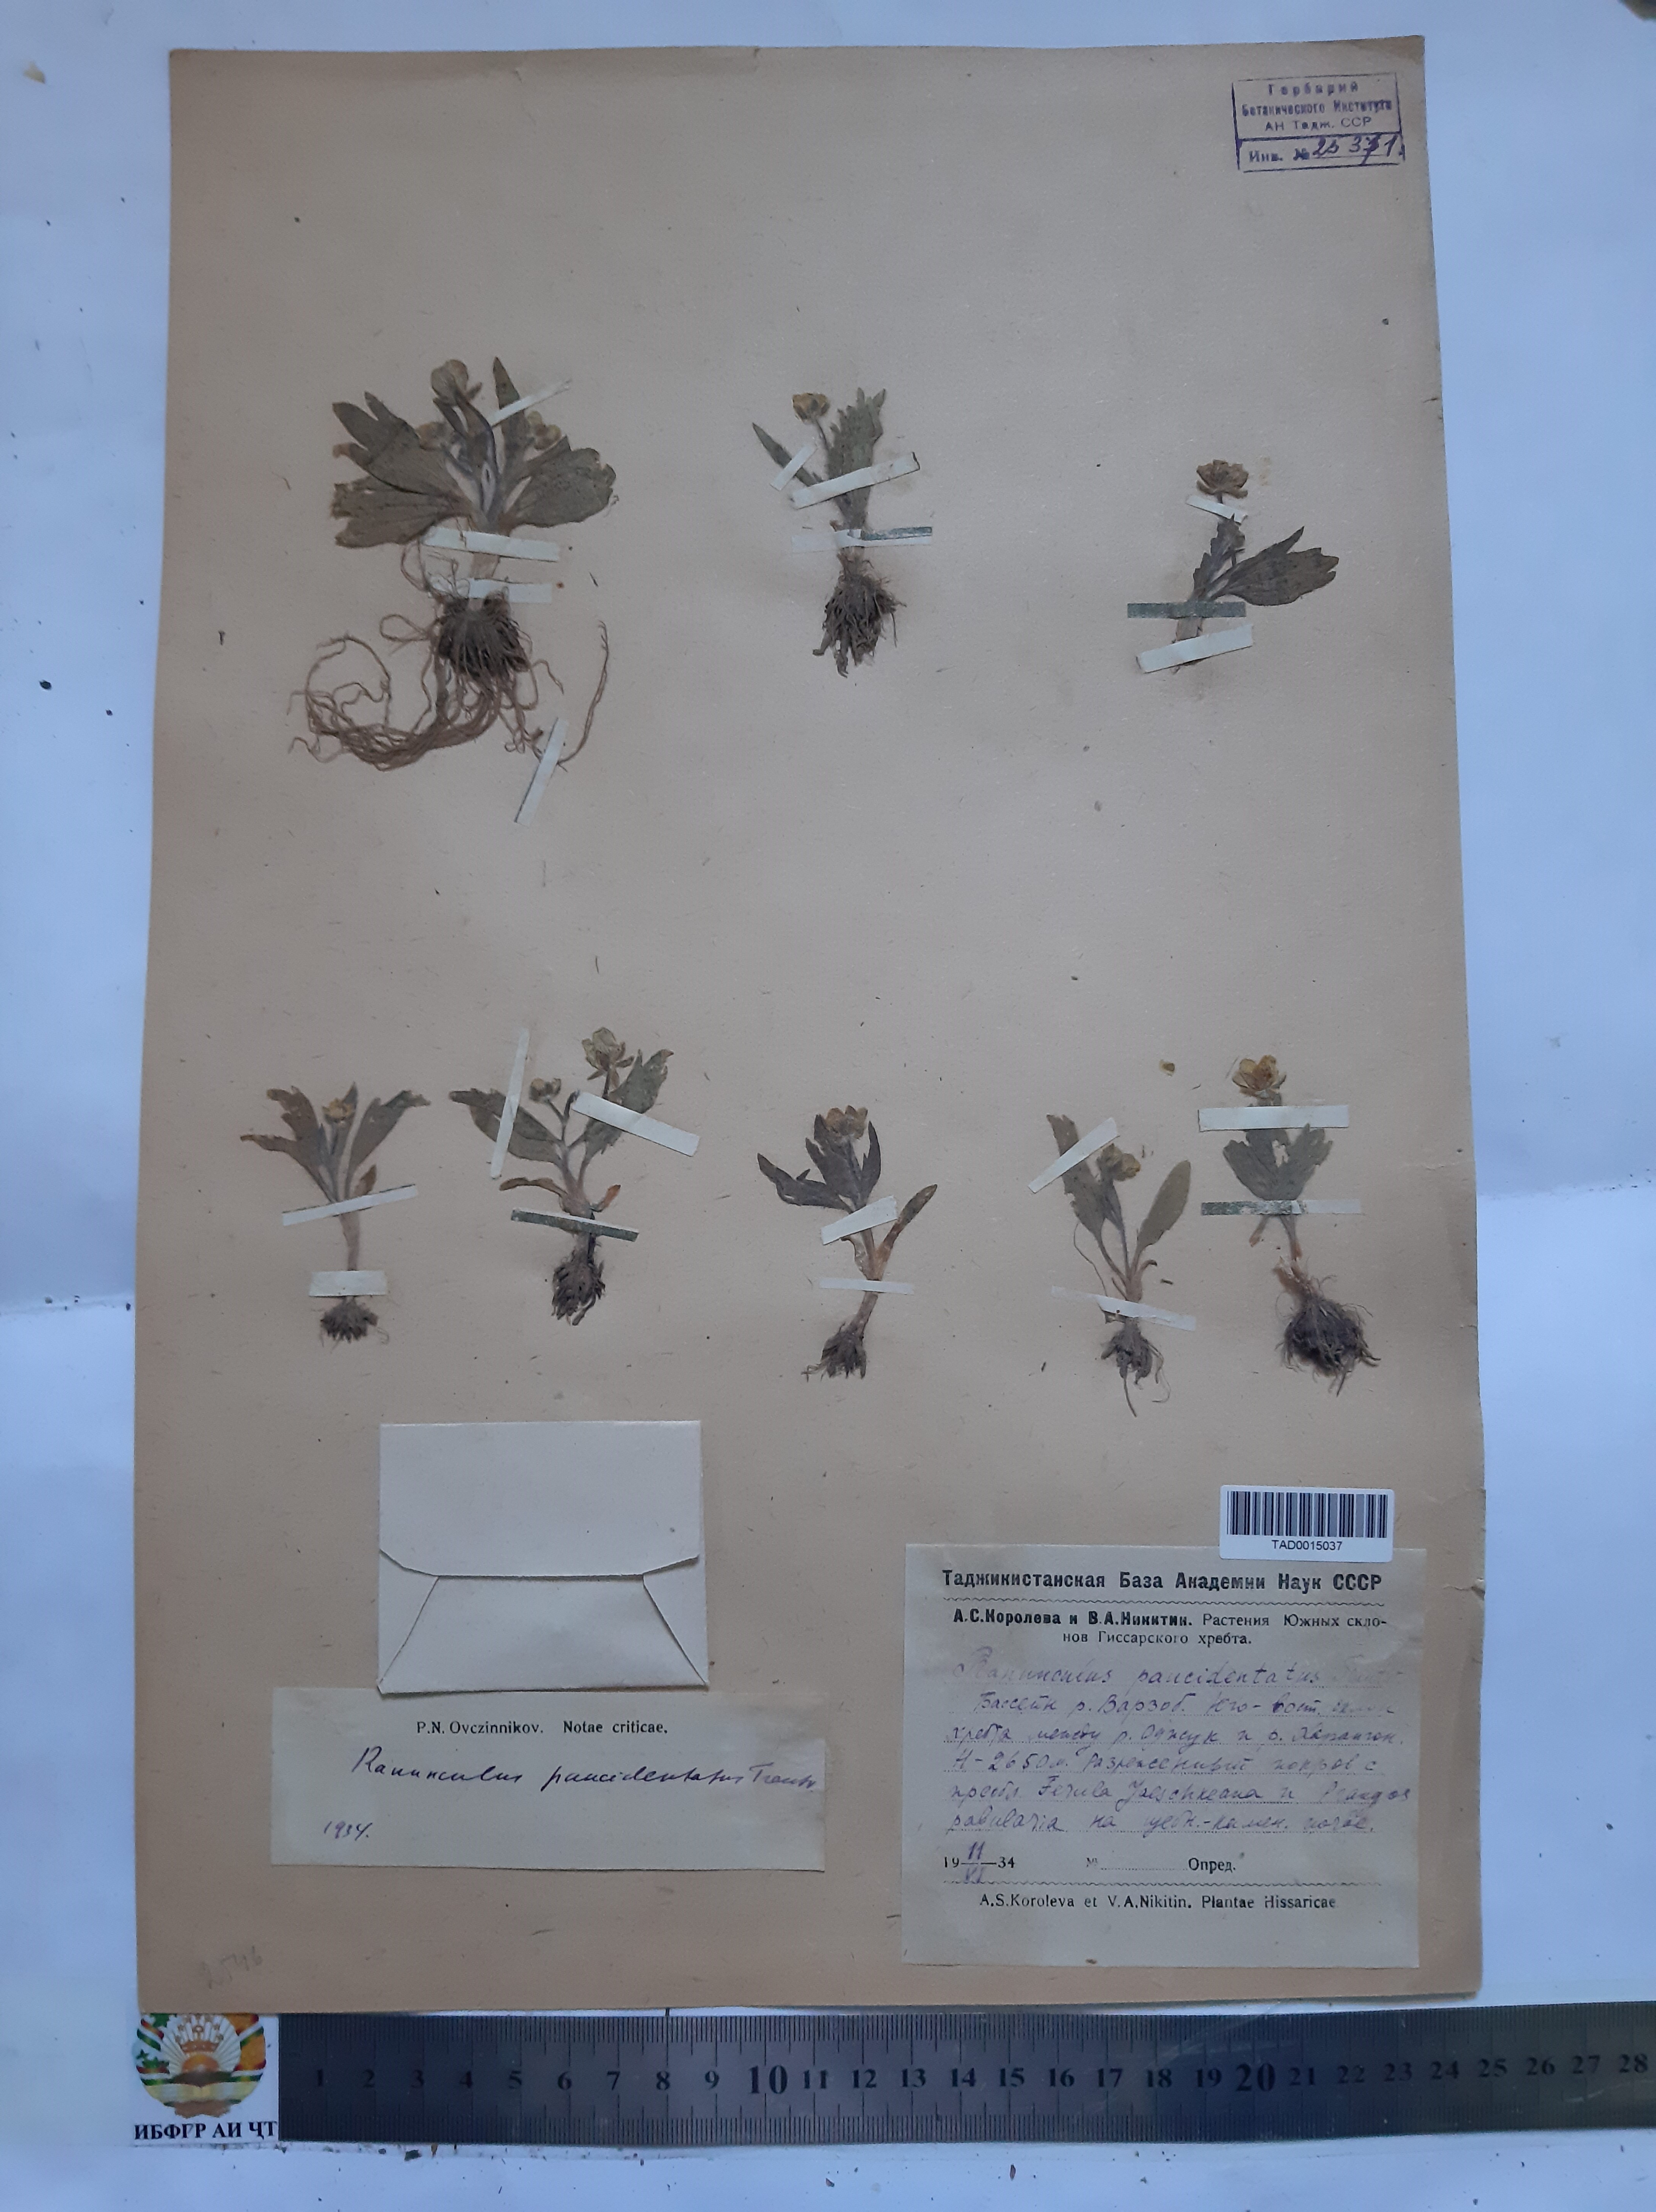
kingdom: Plantae
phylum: Tracheophyta
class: Magnoliopsida
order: Ranunculales
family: Ranunculaceae
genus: Ranunculus
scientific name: Ranunculus paucidentatus
